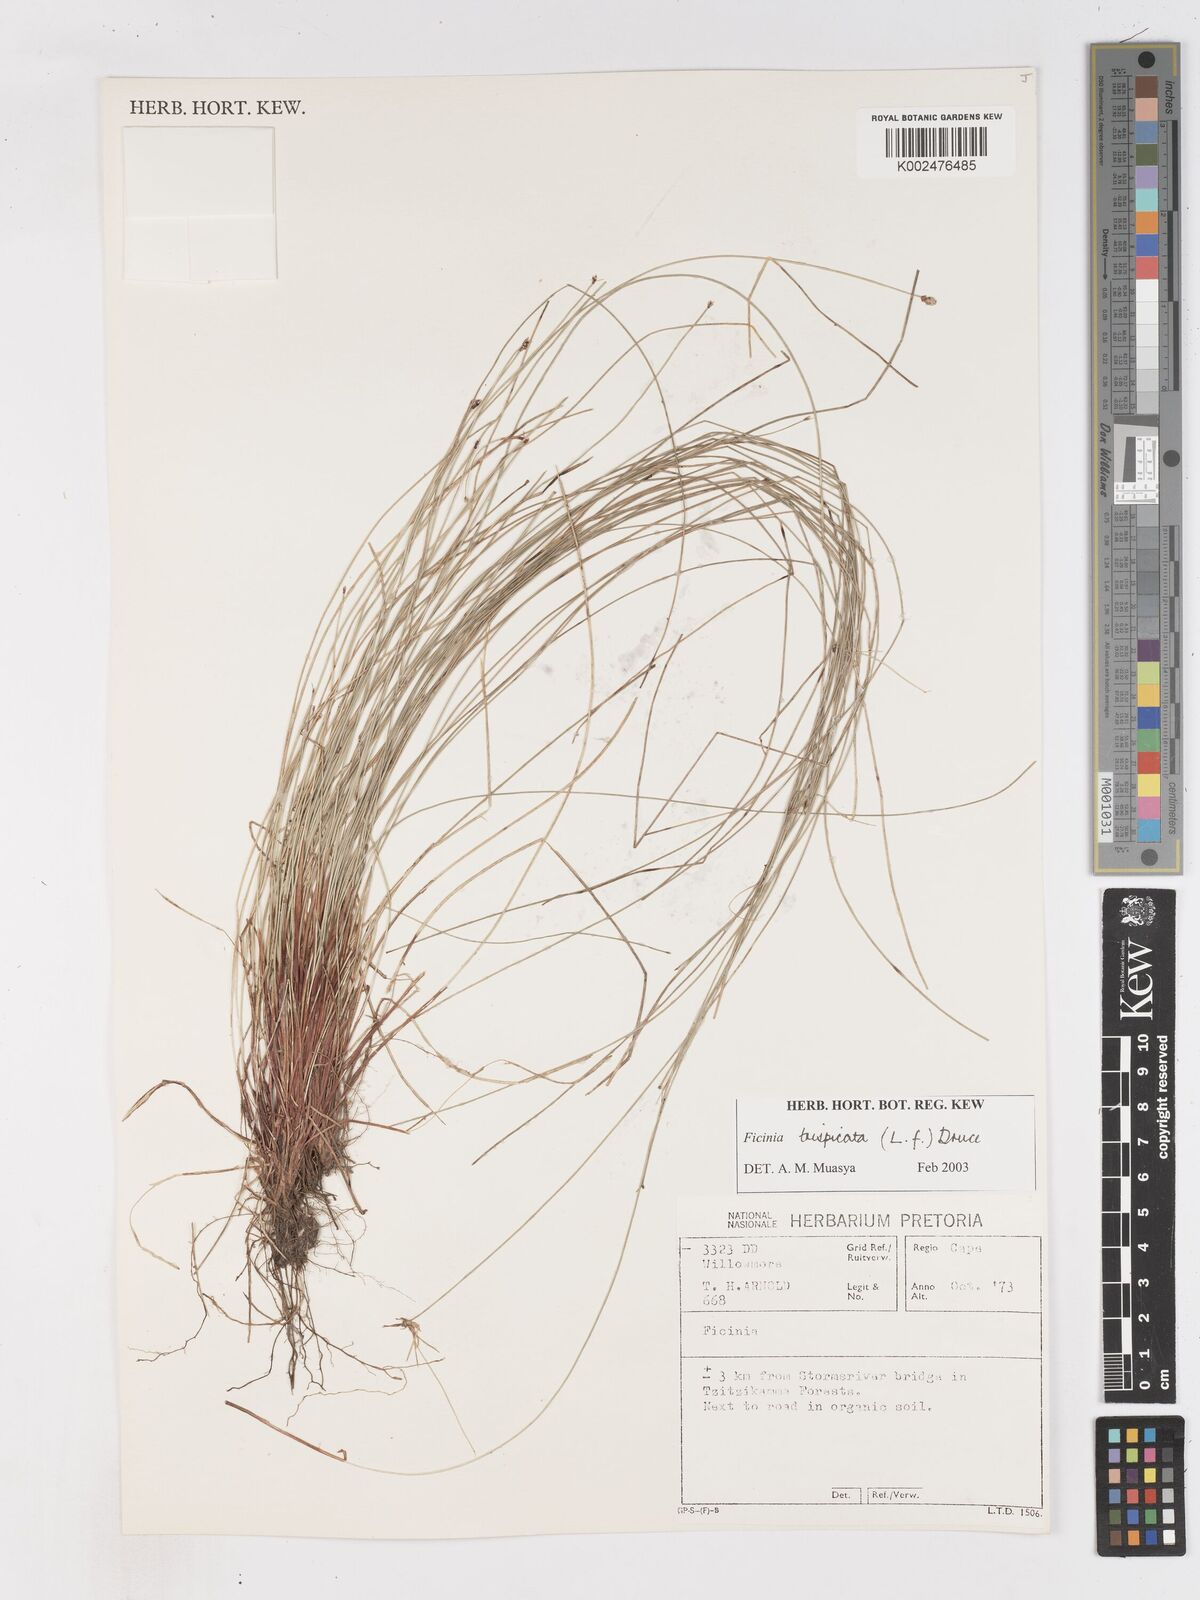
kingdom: Plantae
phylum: Tracheophyta
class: Liliopsida
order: Poales
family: Cyperaceae
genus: Ficinia
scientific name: Ficinia sylvatica
